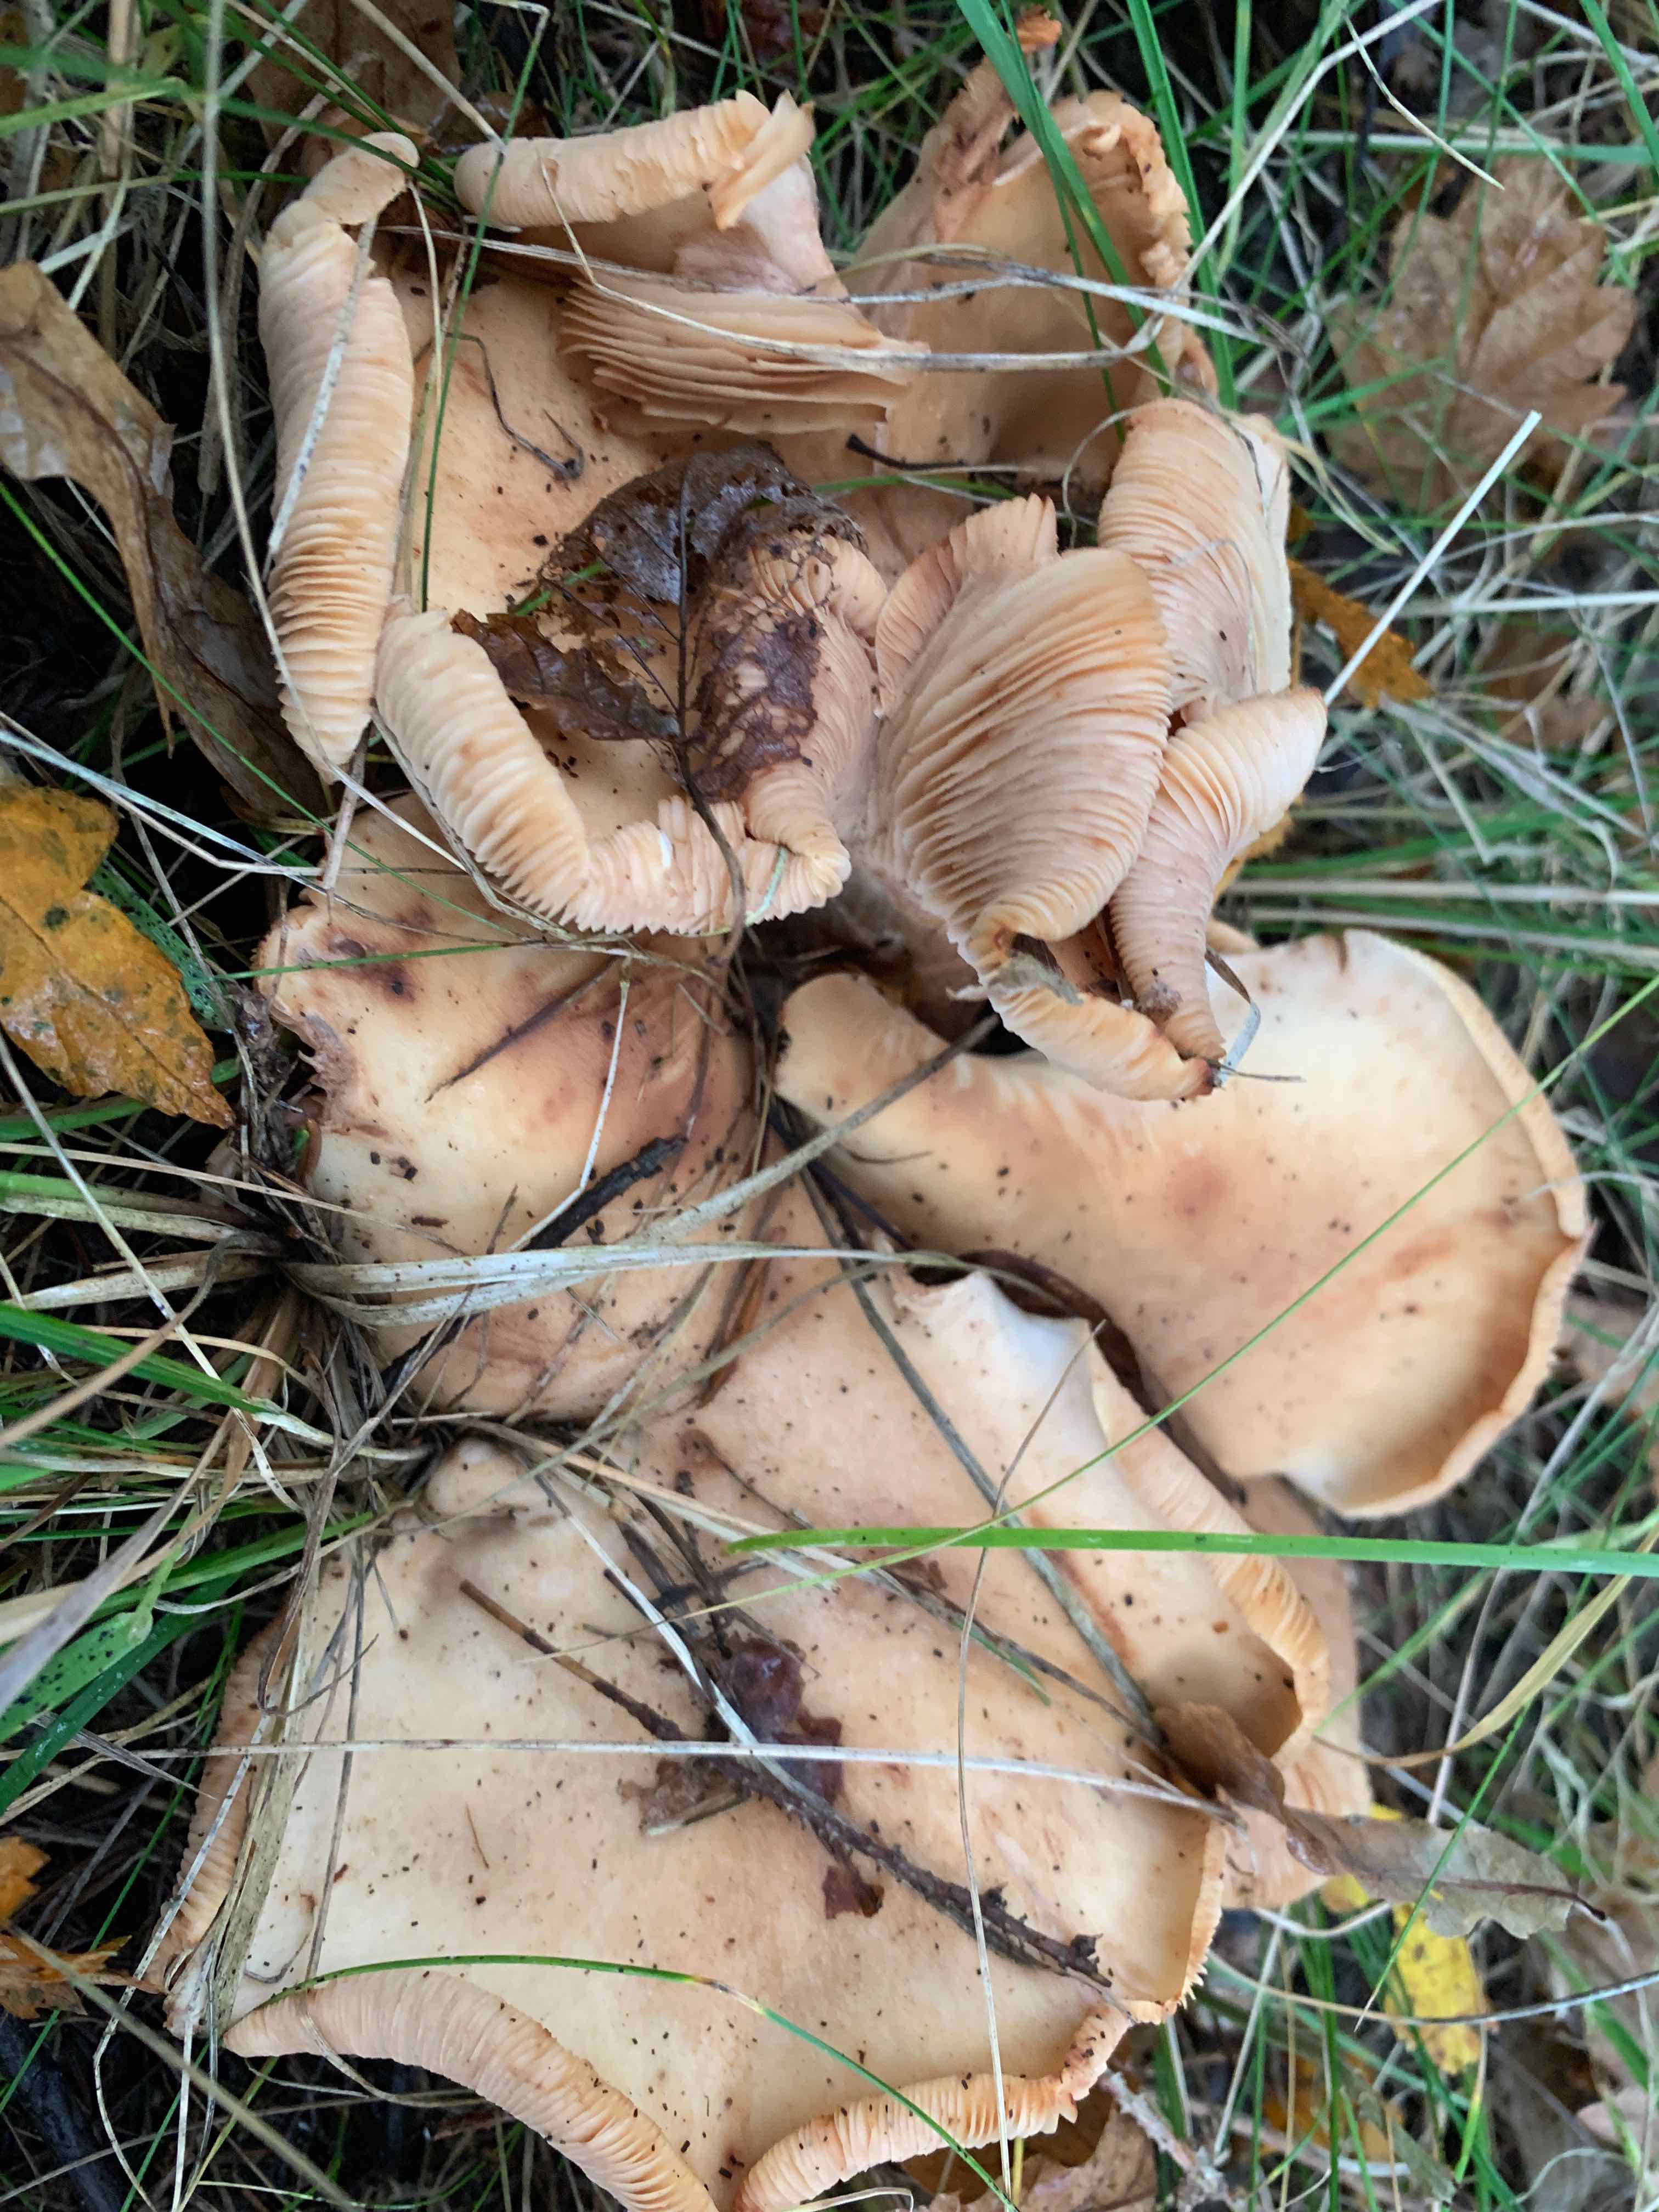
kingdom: Fungi
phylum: Basidiomycota
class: Agaricomycetes
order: Agaricales
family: Entolomataceae
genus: Clitopilus
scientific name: Clitopilus geminus
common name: kødfarvet troldhat
